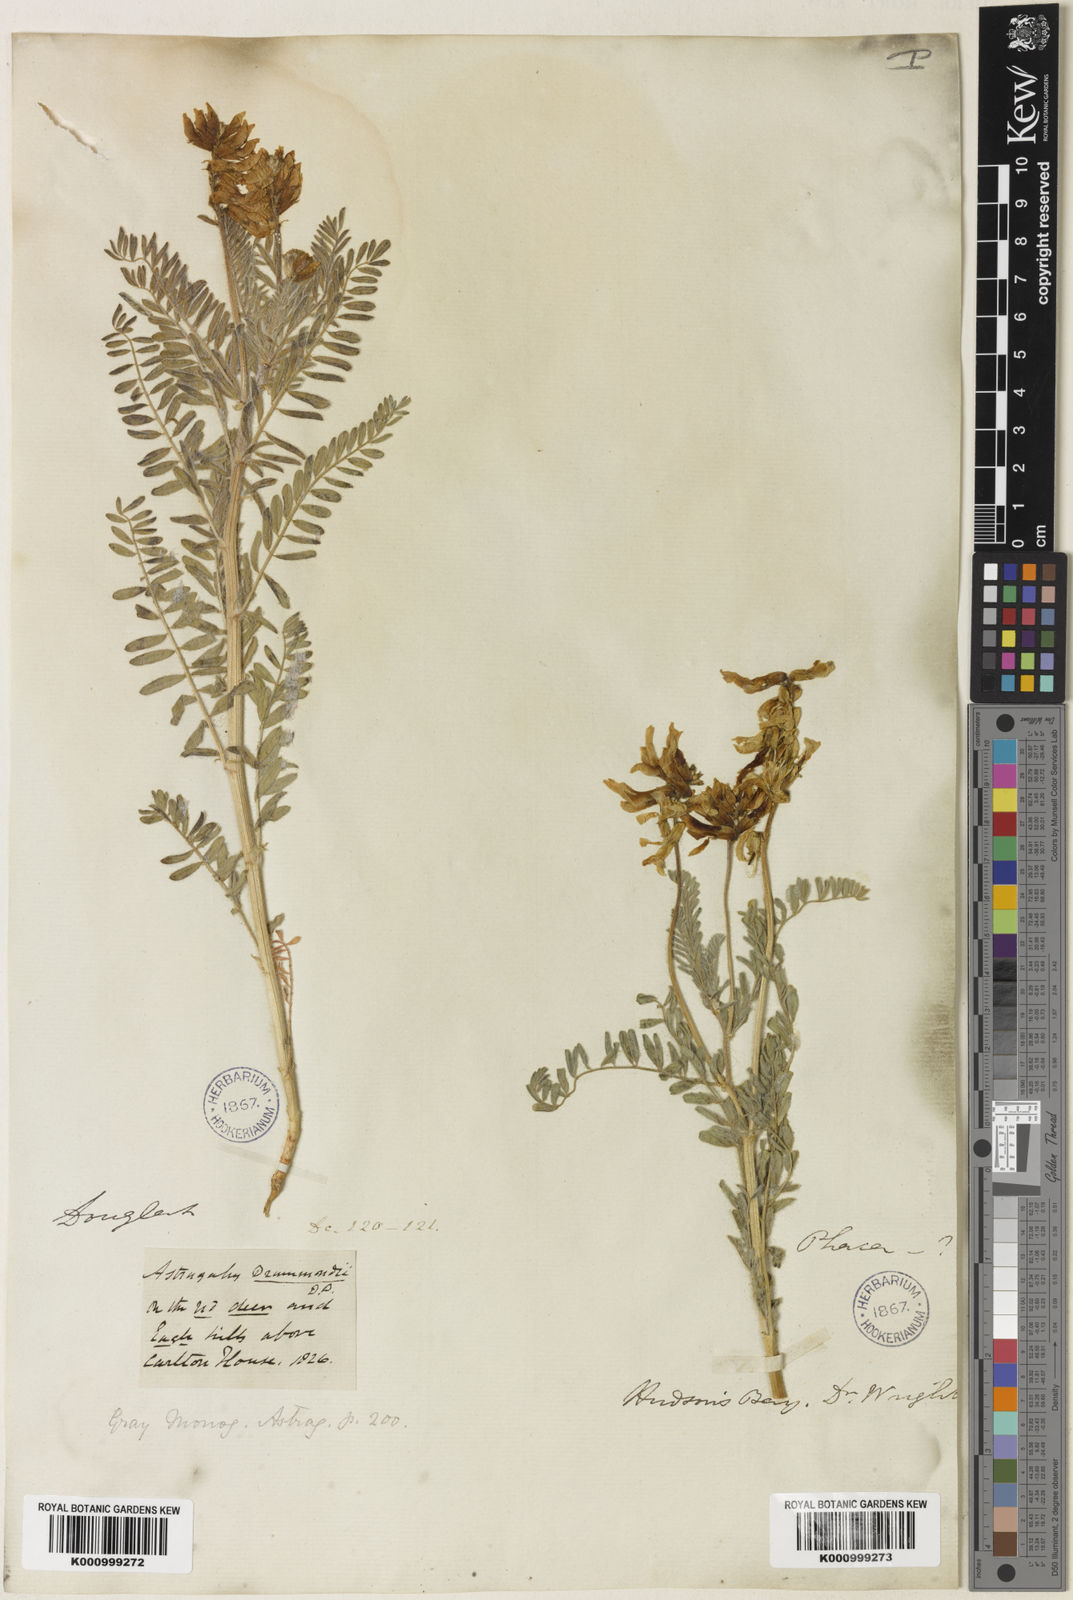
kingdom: Plantae
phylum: Tracheophyta
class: Magnoliopsida
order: Fabales
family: Fabaceae
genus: Astragalus
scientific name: Astragalus
